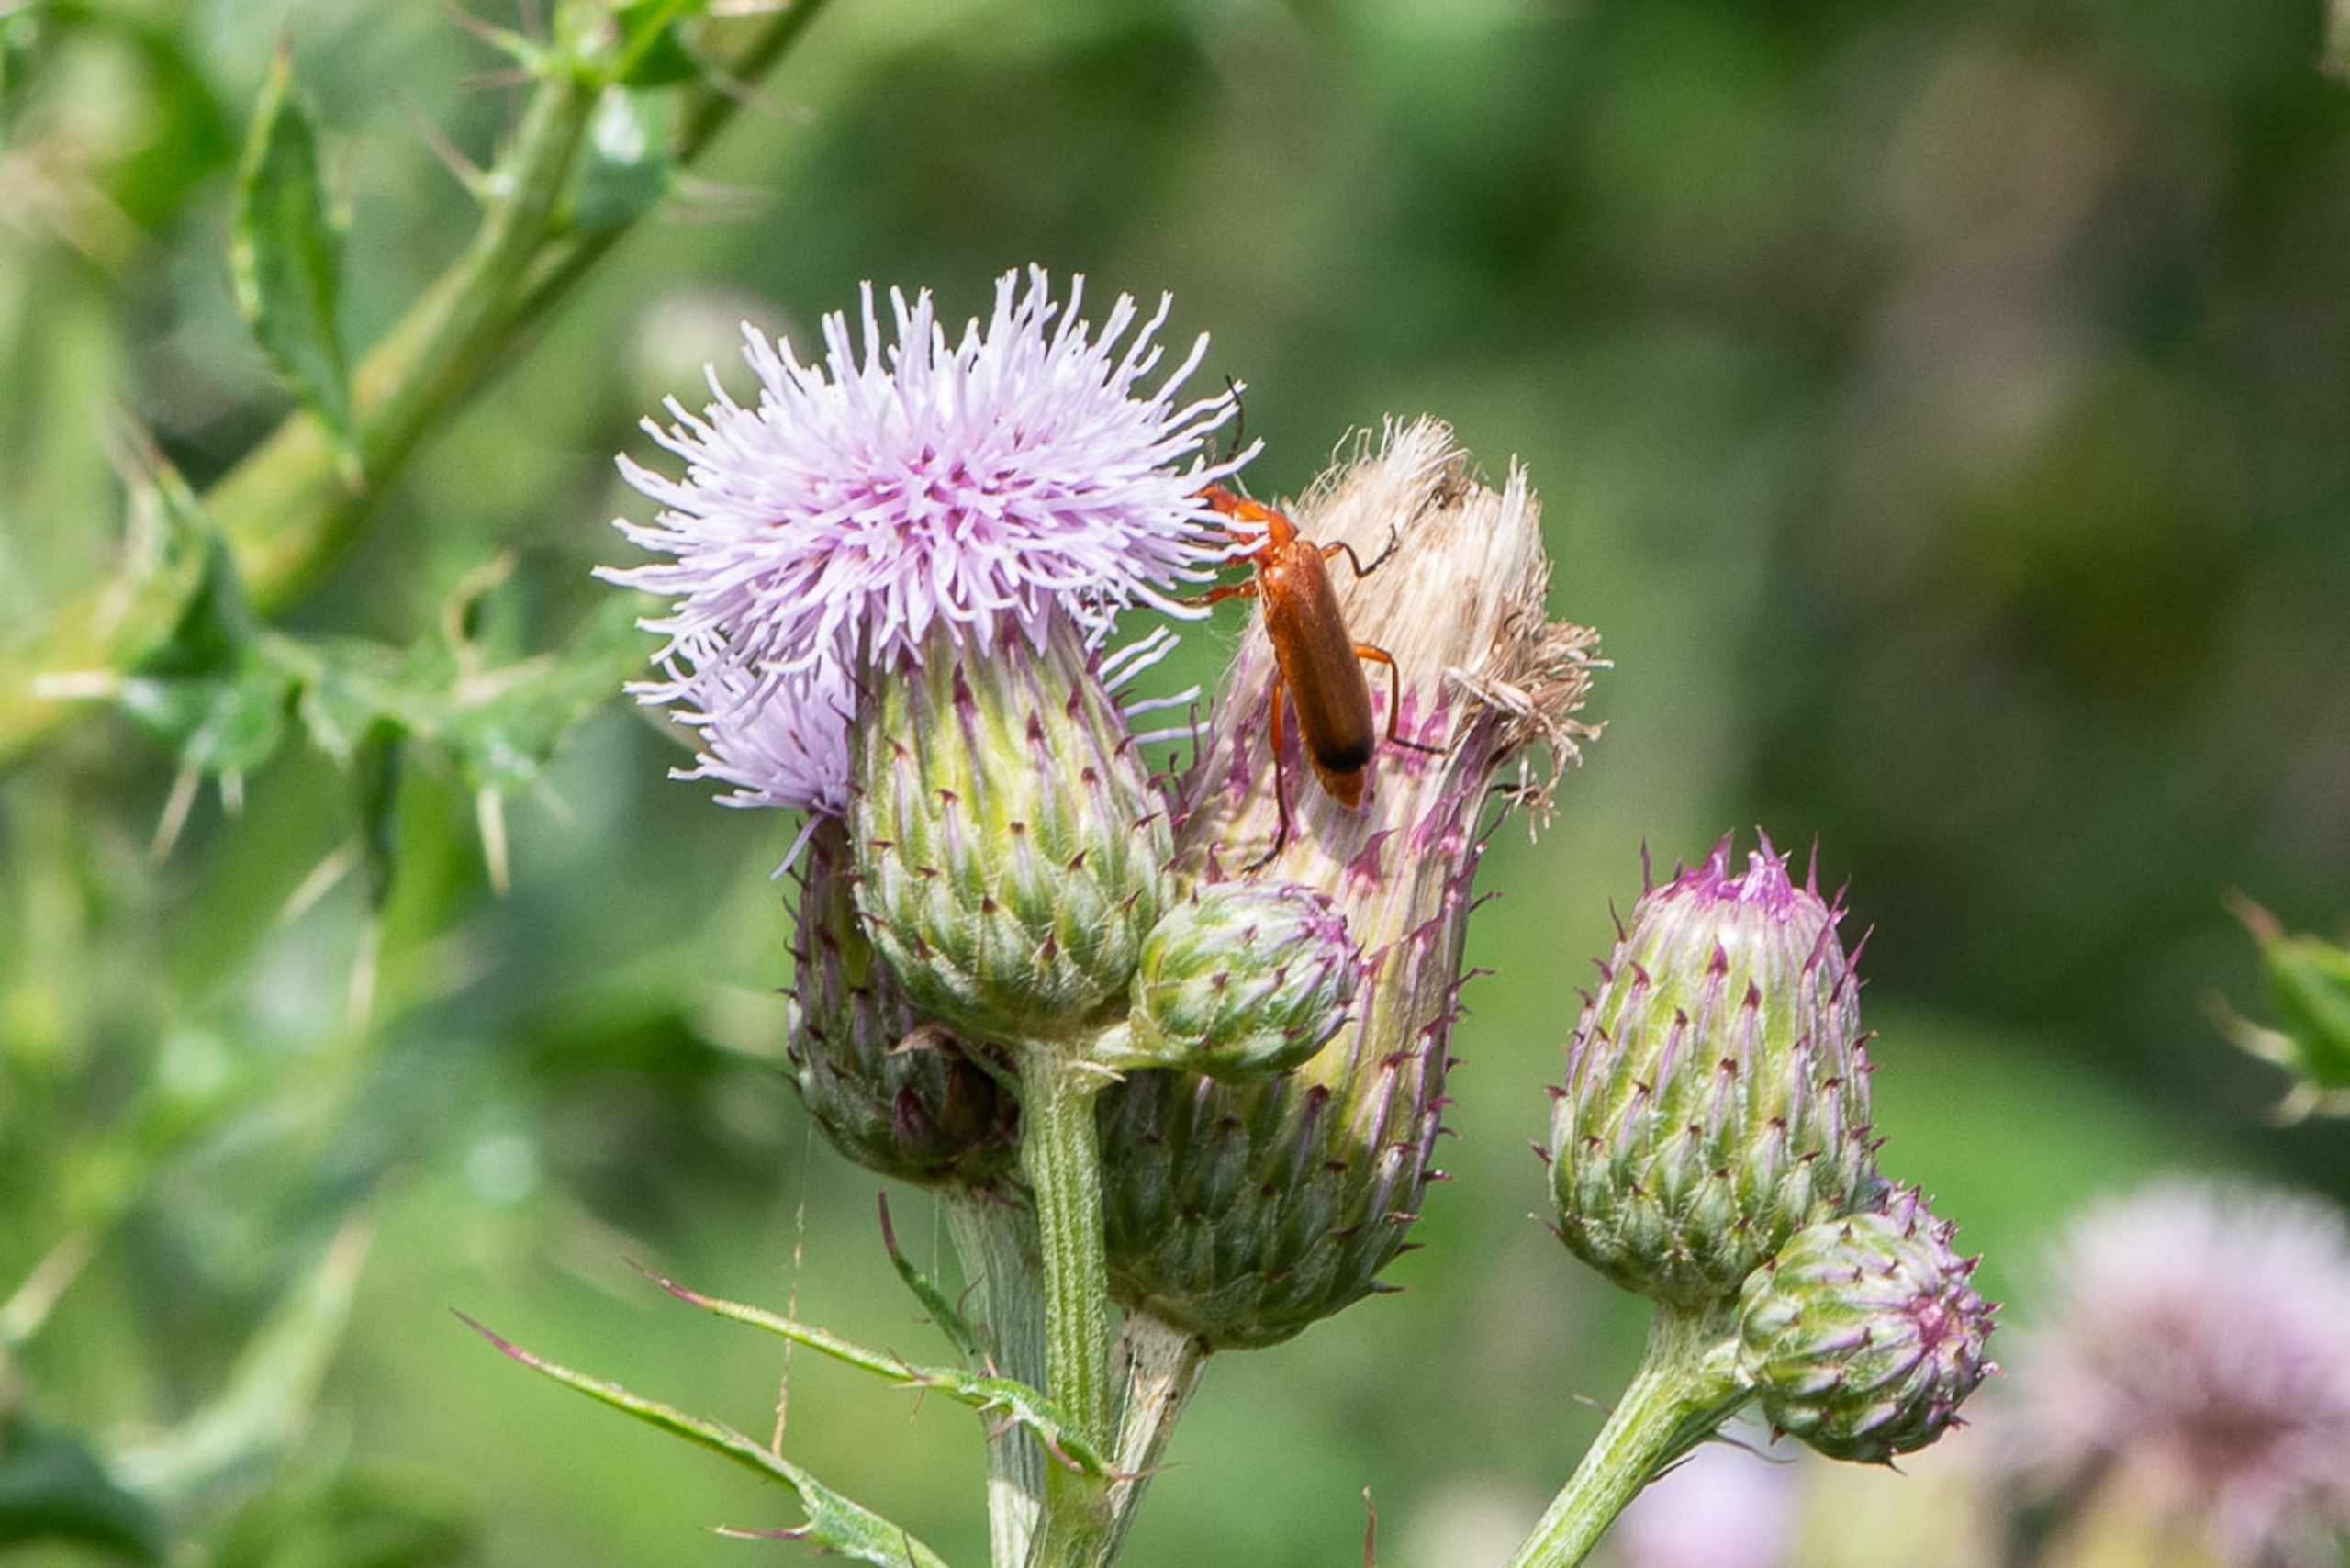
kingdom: Animalia
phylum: Arthropoda
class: Insecta
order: Coleoptera
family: Cantharidae
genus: Rhagonycha
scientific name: Rhagonycha fulva
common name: Præstebille
